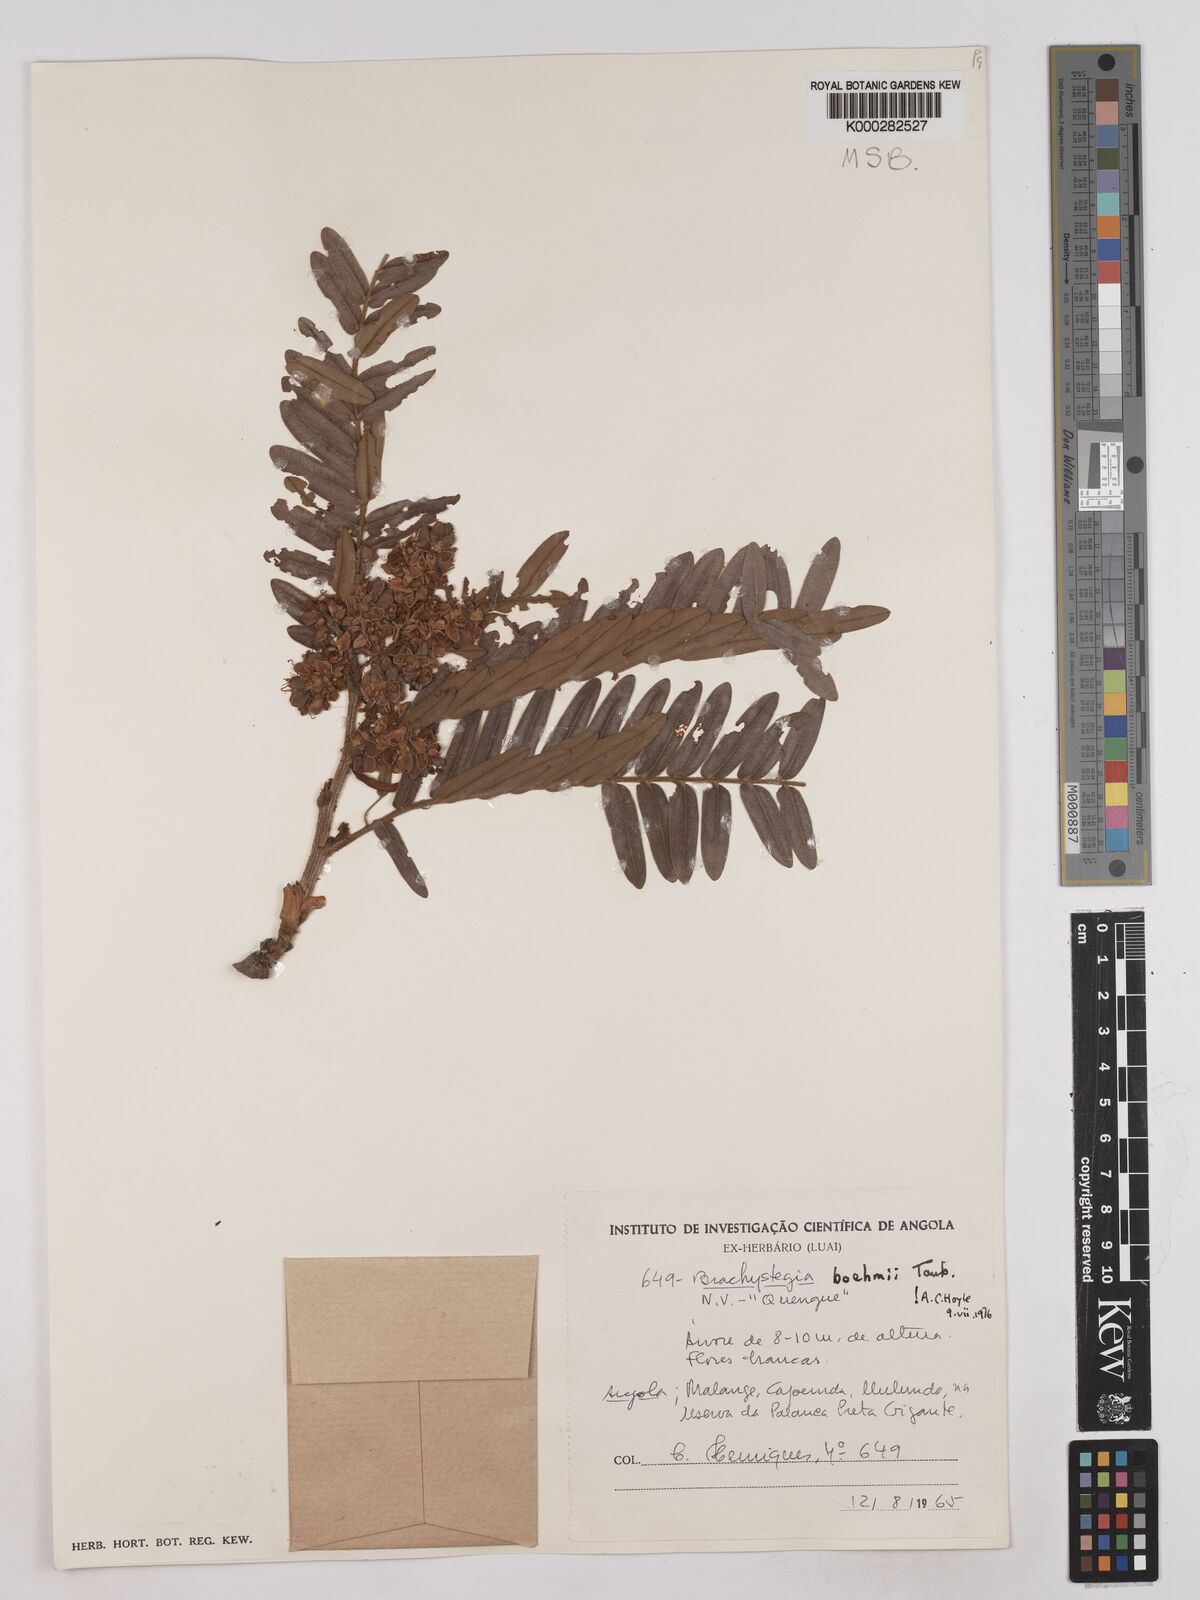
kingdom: Plantae
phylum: Tracheophyta
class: Magnoliopsida
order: Fabales
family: Fabaceae
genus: Brachystegia
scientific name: Brachystegia boehmii
